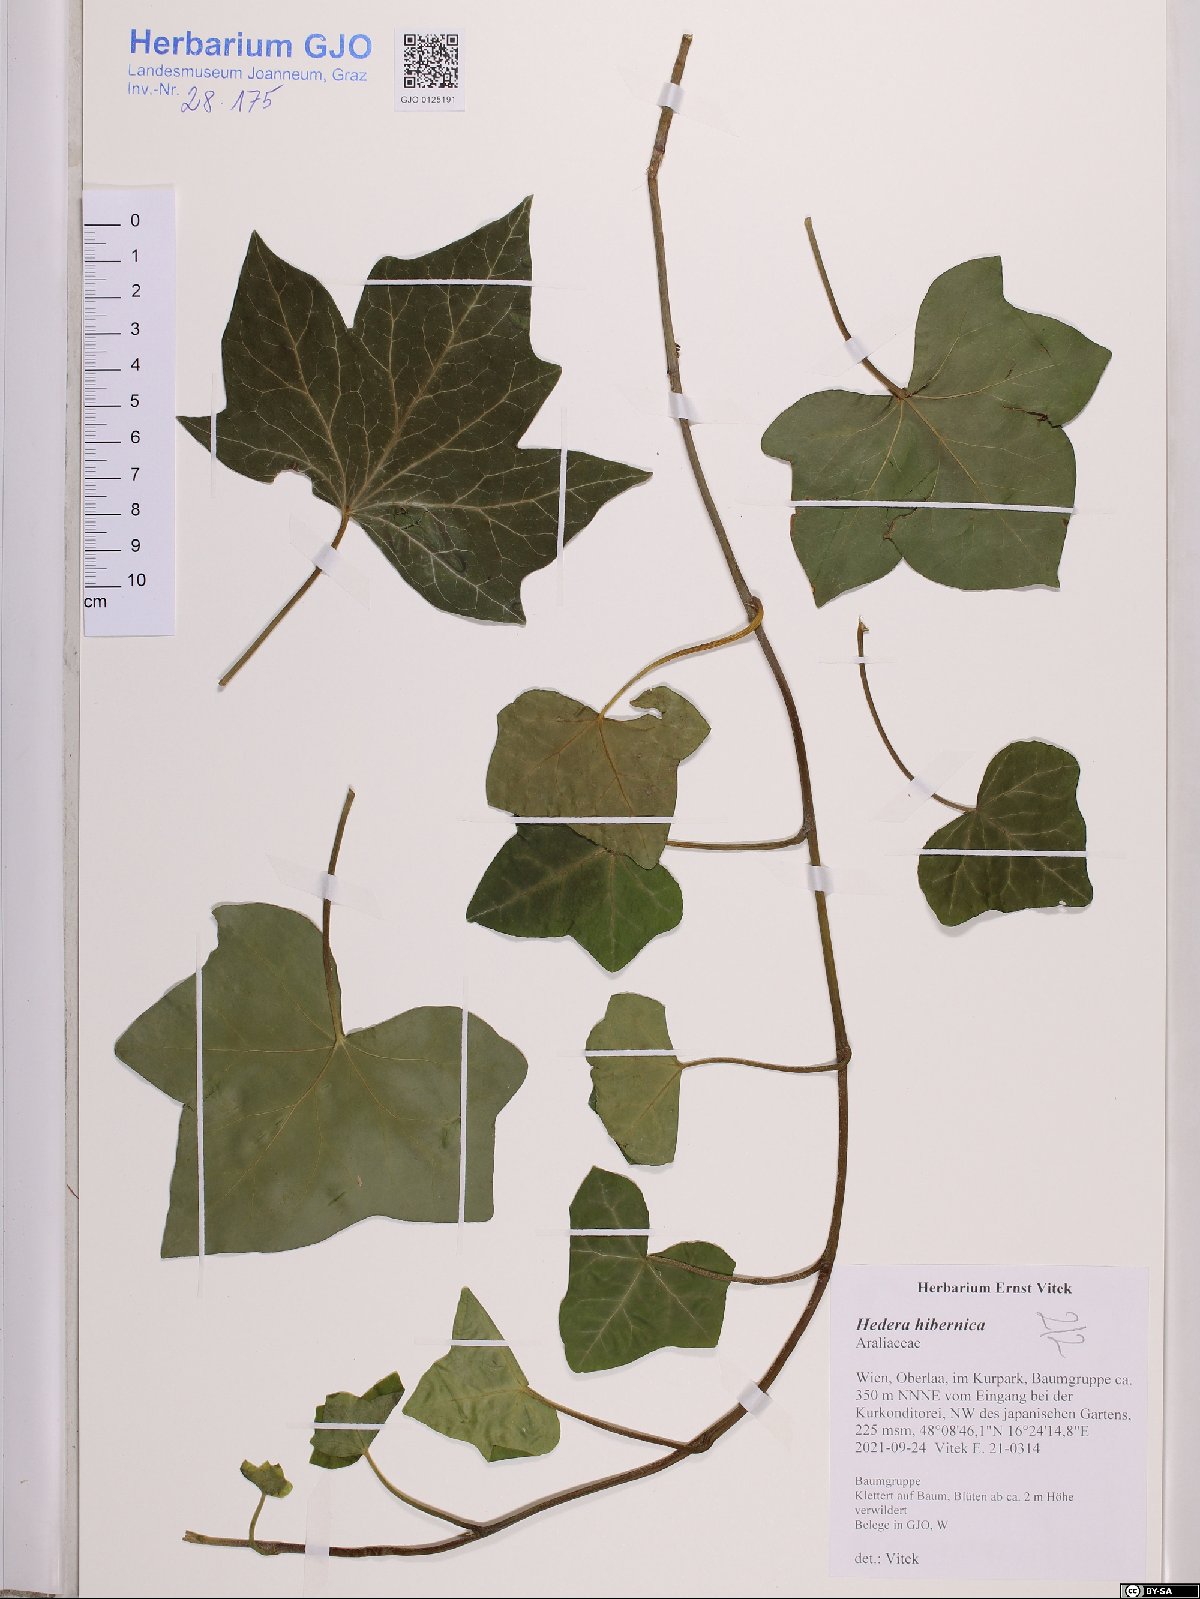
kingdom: Plantae
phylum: Tracheophyta
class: Magnoliopsida
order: Apiales
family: Araliaceae
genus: Hedera
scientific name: Hedera hibernica
